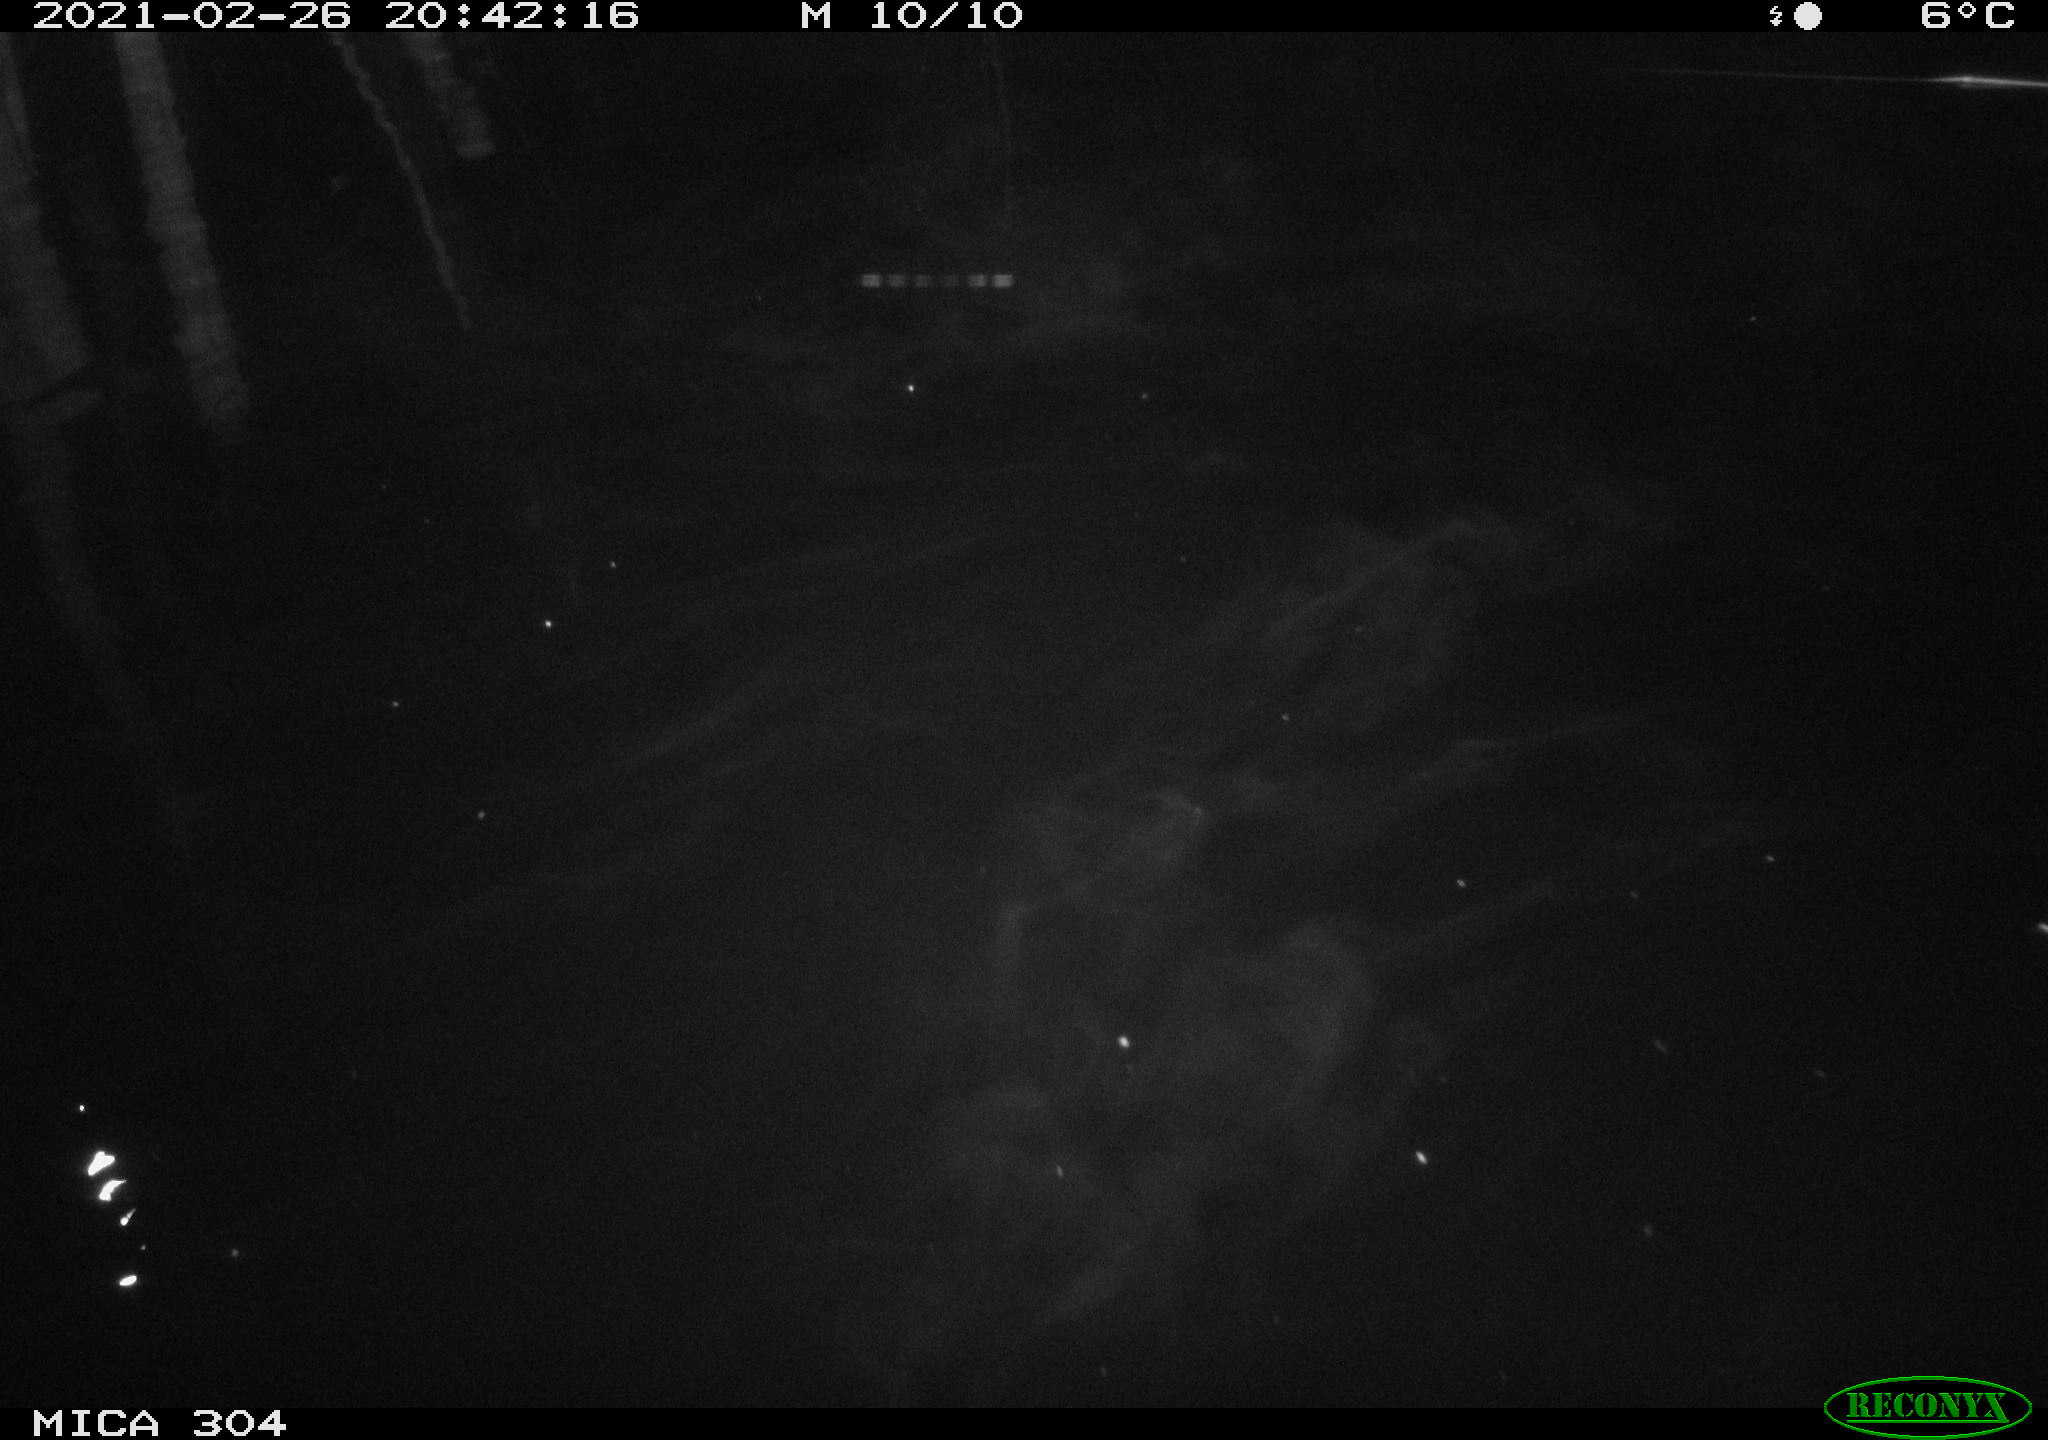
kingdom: Animalia
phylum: Chordata
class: Mammalia
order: Rodentia
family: Muridae
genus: Rattus
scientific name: Rattus norvegicus
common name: Brown rat
